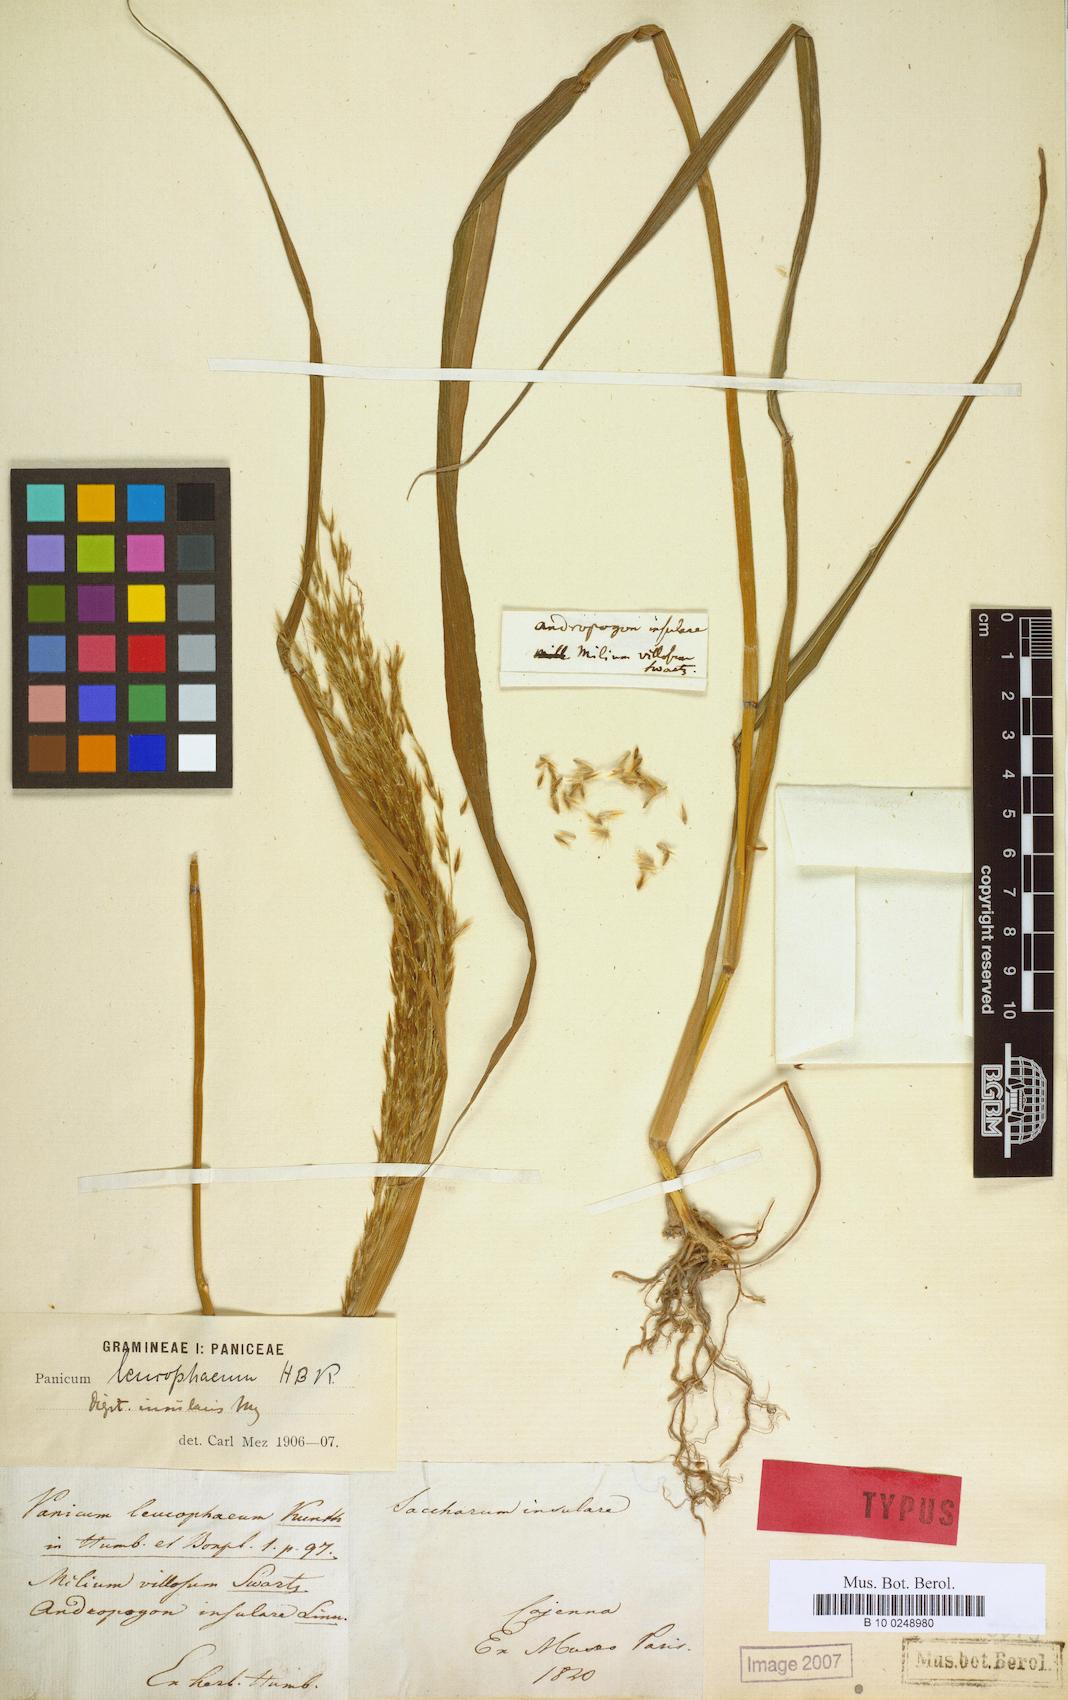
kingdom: Plantae
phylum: Tracheophyta
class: Liliopsida
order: Poales
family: Poaceae
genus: Digitaria
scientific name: Digitaria insularis
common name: Sourgrass
